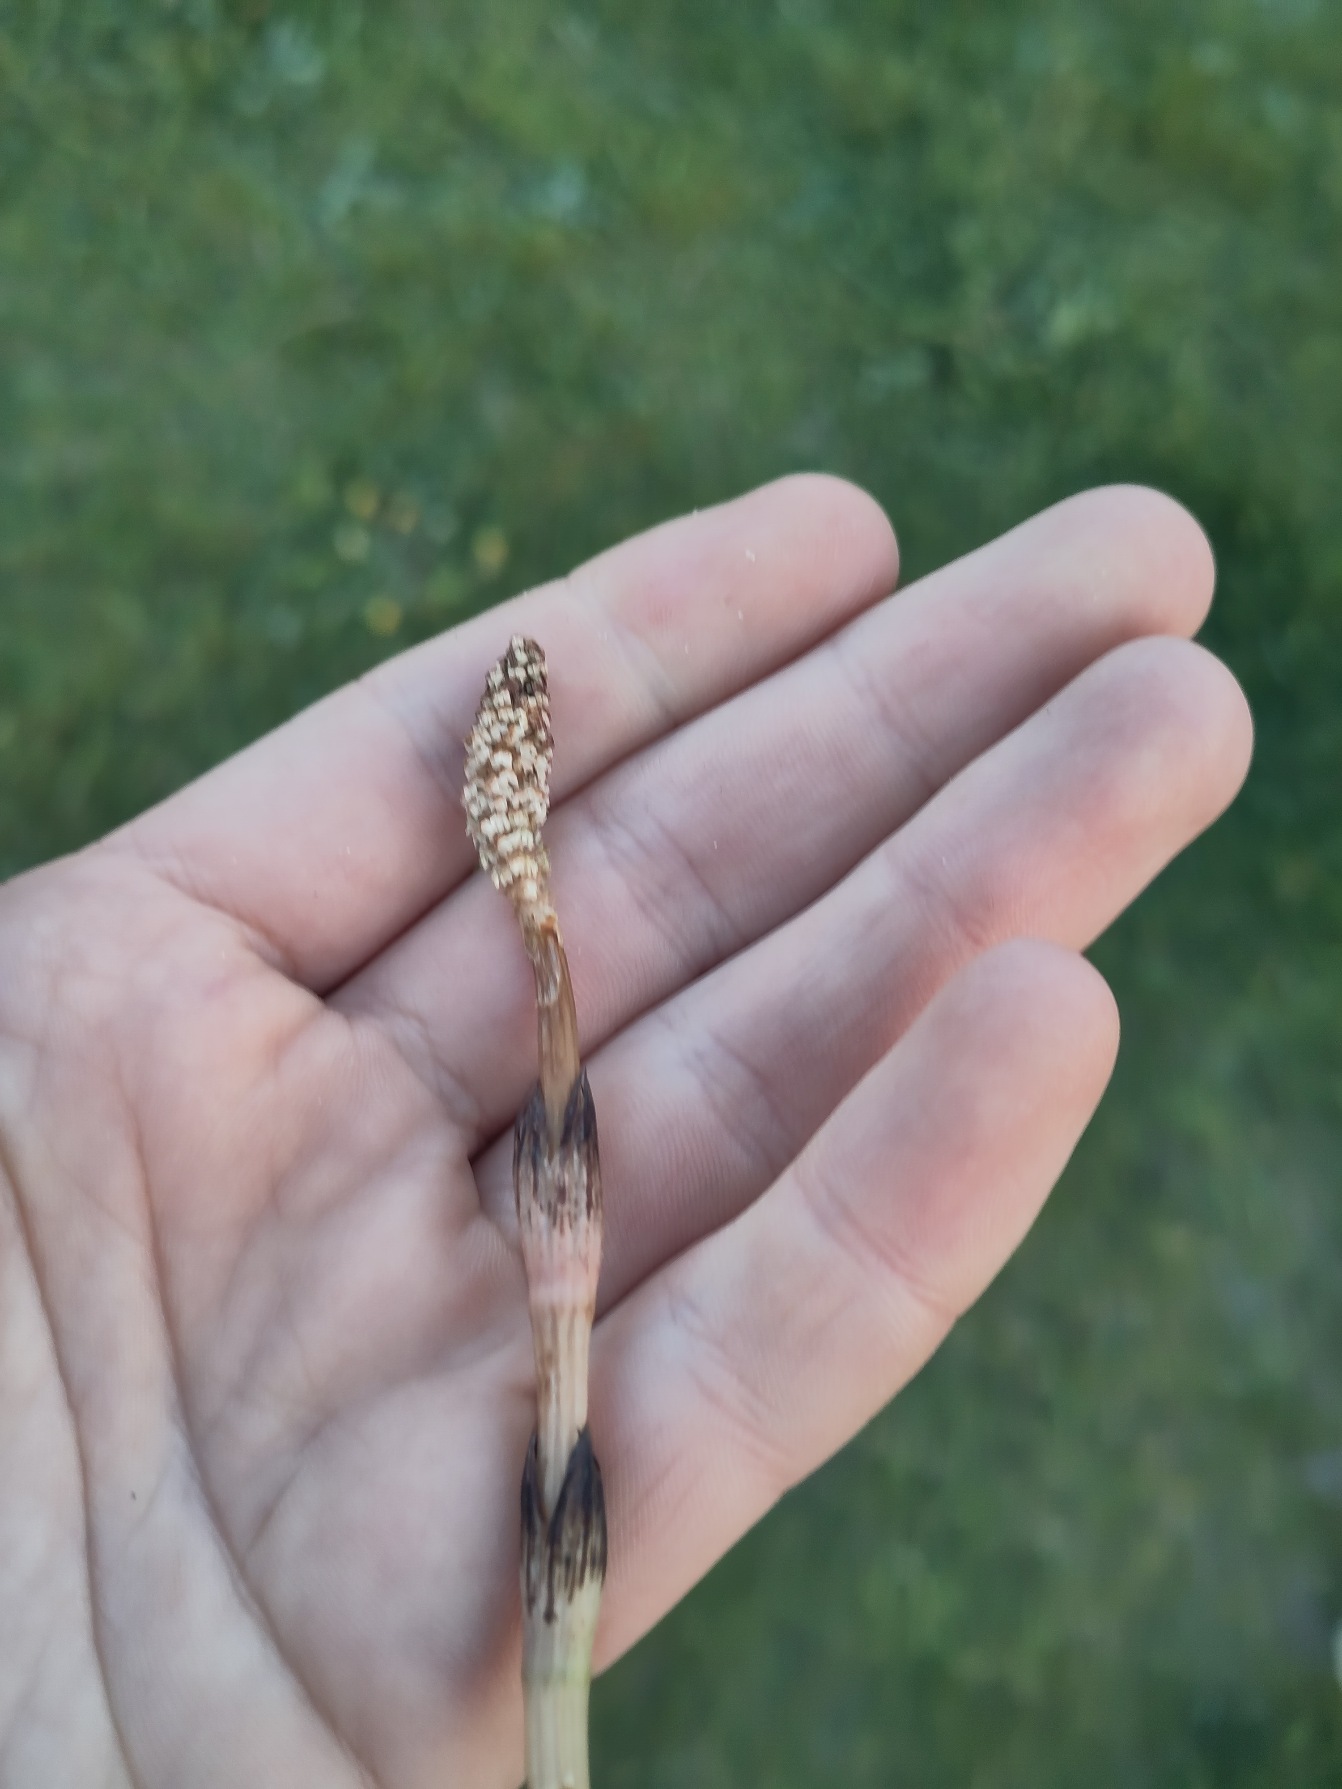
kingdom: Plantae
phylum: Tracheophyta
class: Polypodiopsida
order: Equisetales
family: Equisetaceae
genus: Equisetum
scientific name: Equisetum arvense
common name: Ager-padderok
